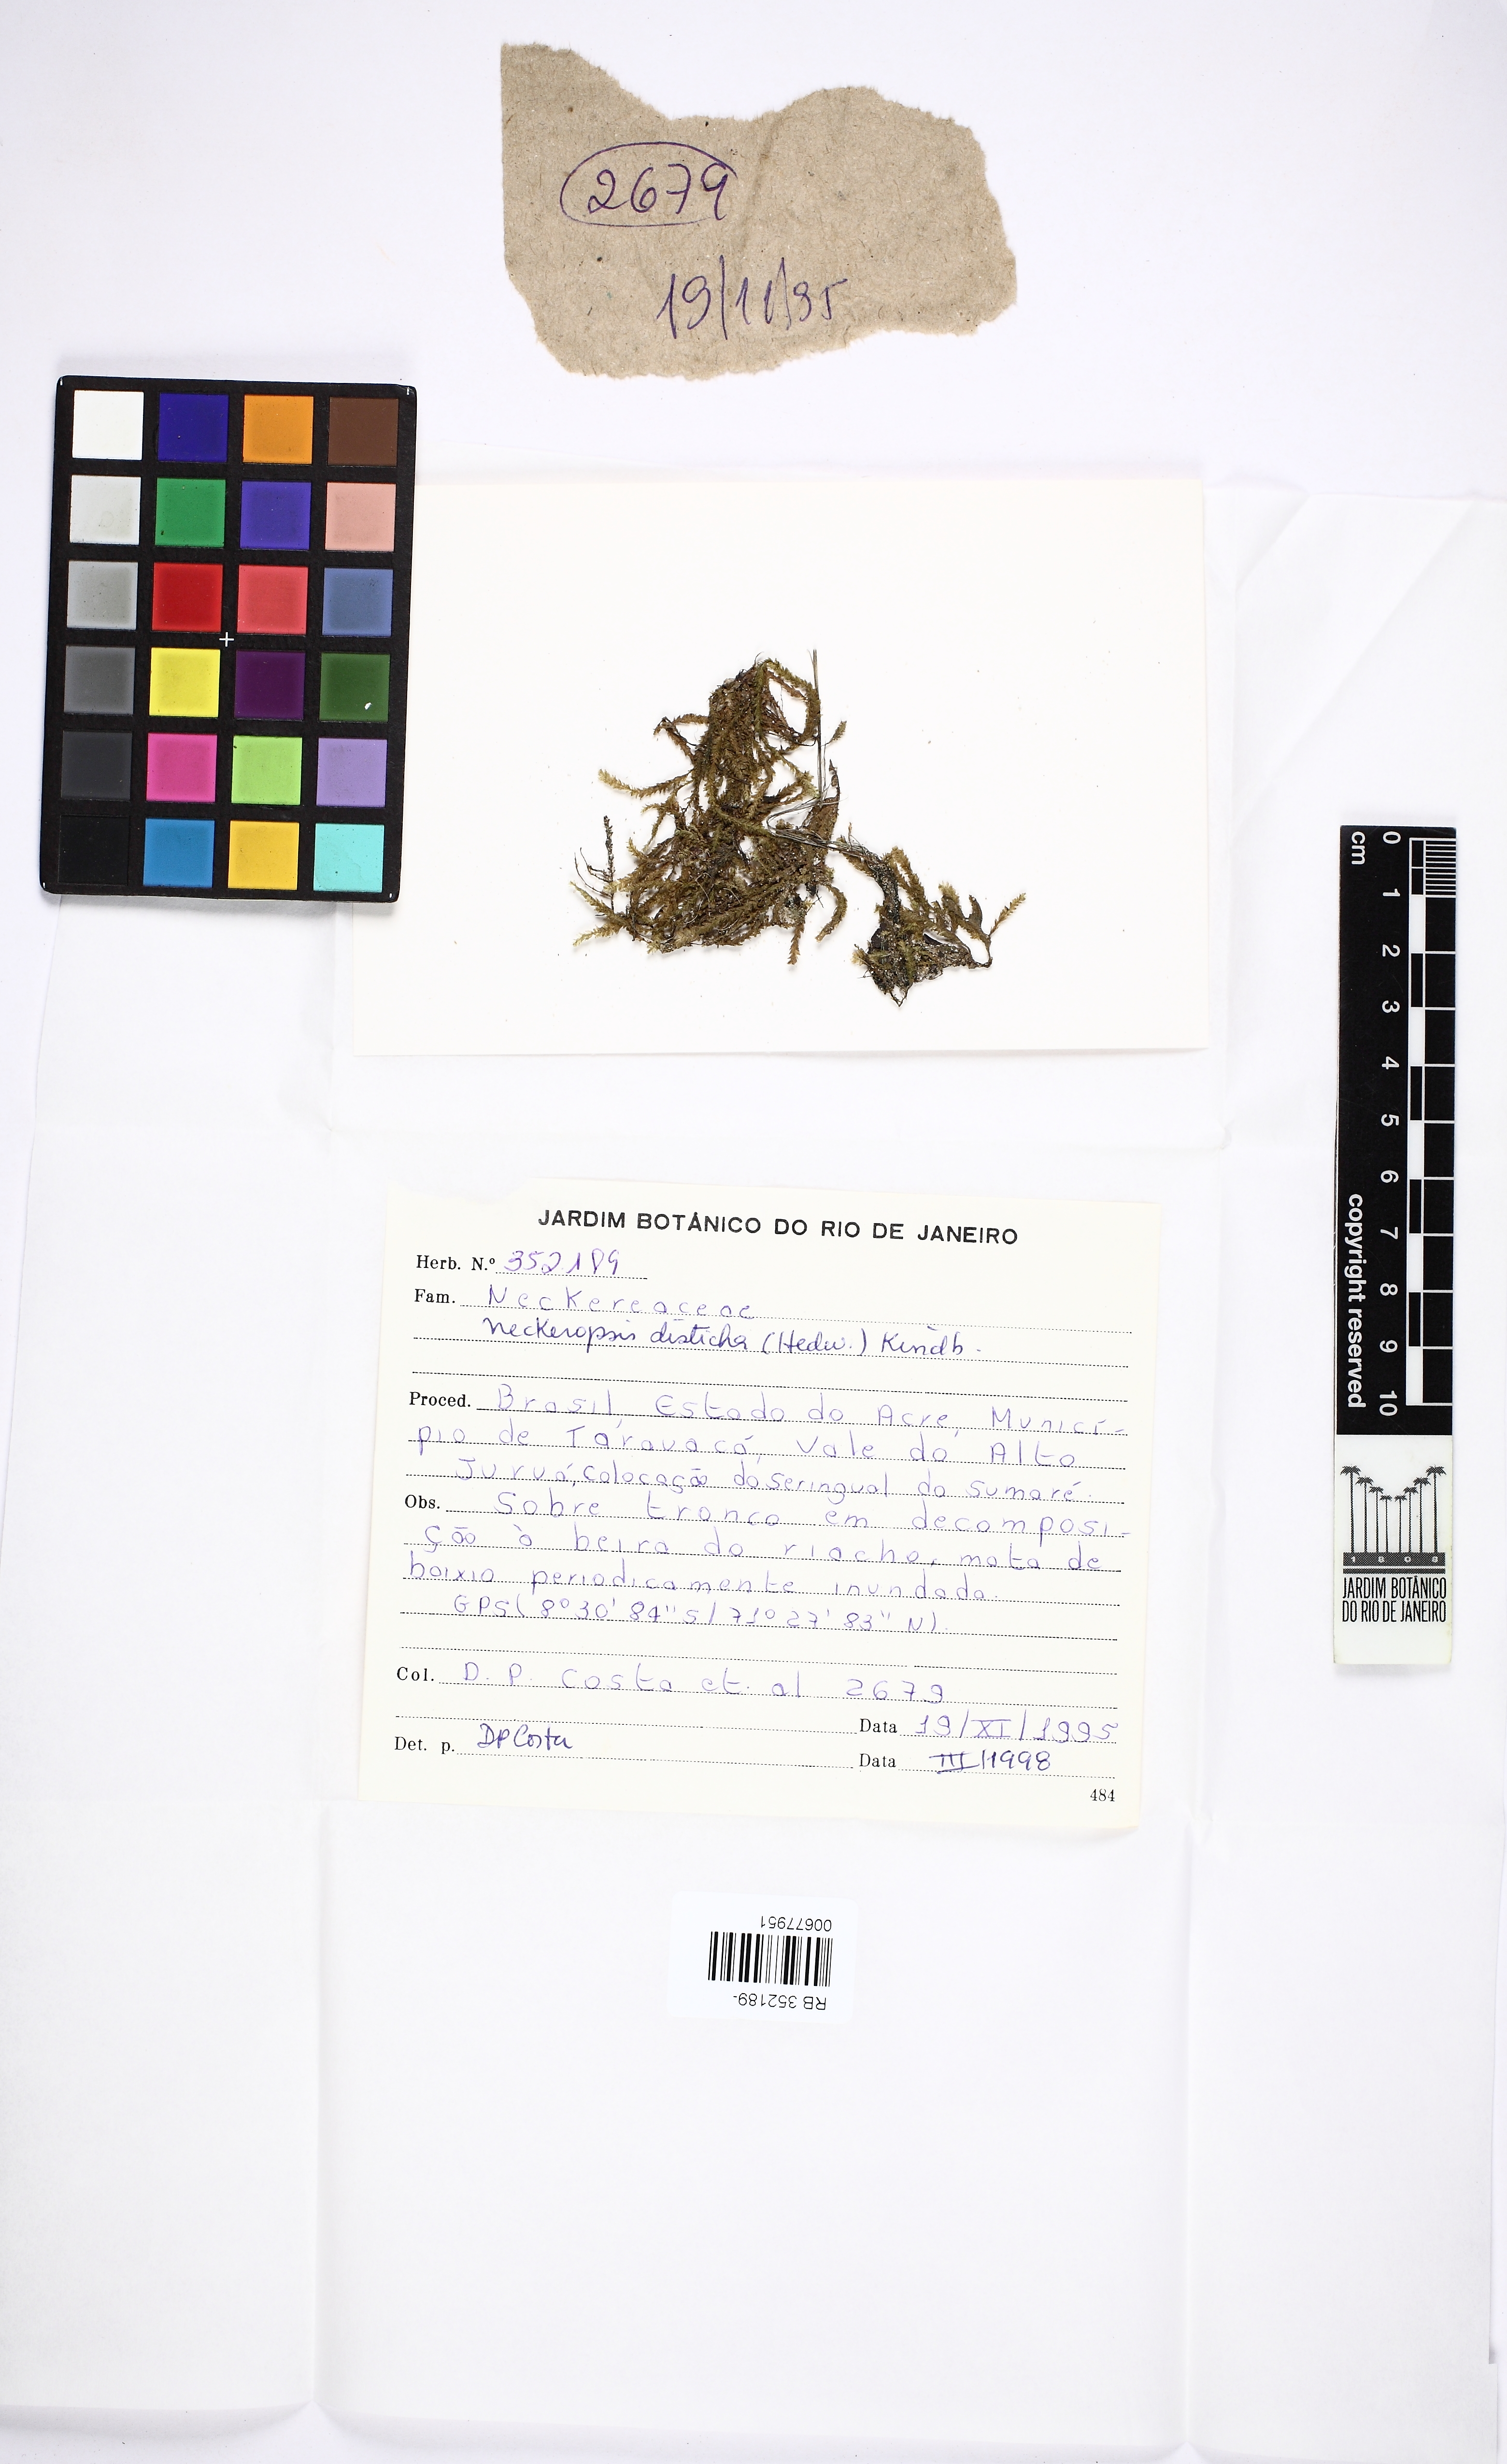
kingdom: Plantae
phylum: Bryophyta
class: Bryopsida
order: Hypnales
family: Neckeraceae
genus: Neckeropsis
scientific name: Neckeropsis disticha
